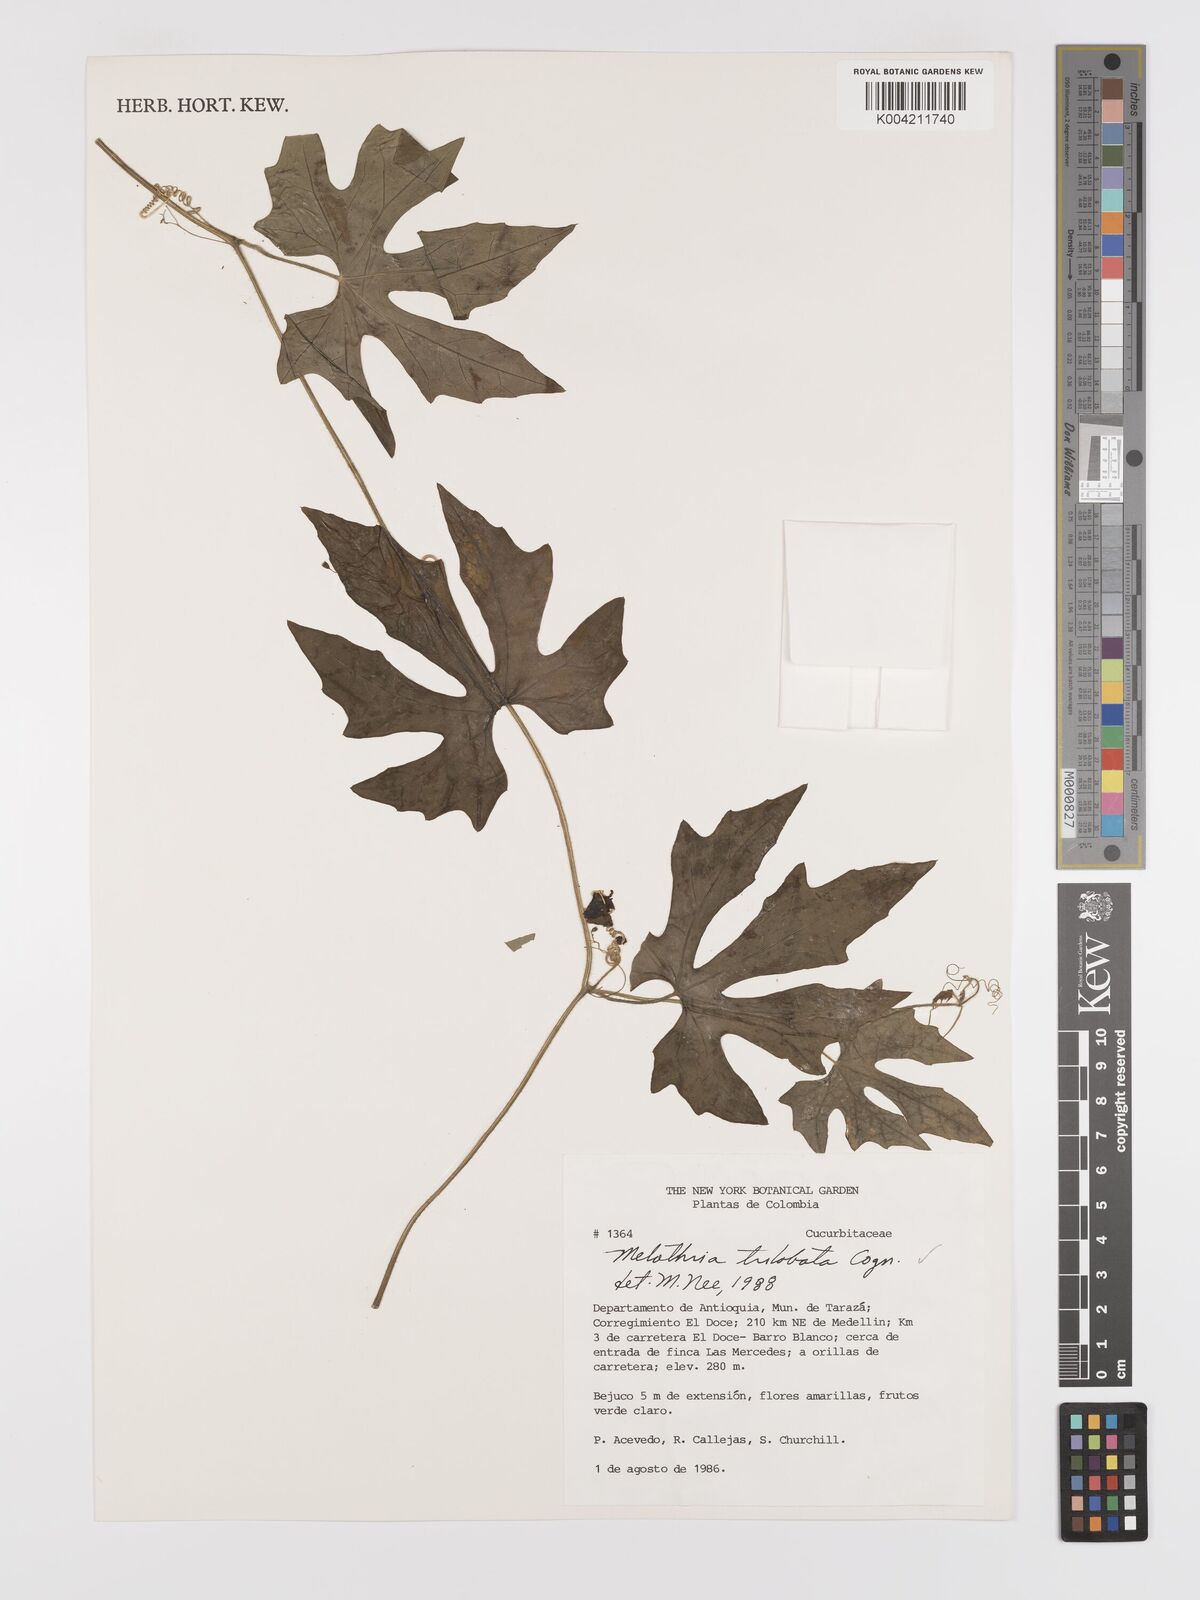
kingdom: Plantae
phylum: Tracheophyta
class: Magnoliopsida
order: Cucurbitales
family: Cucurbitaceae
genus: Melothria
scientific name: Melothria trilobata
